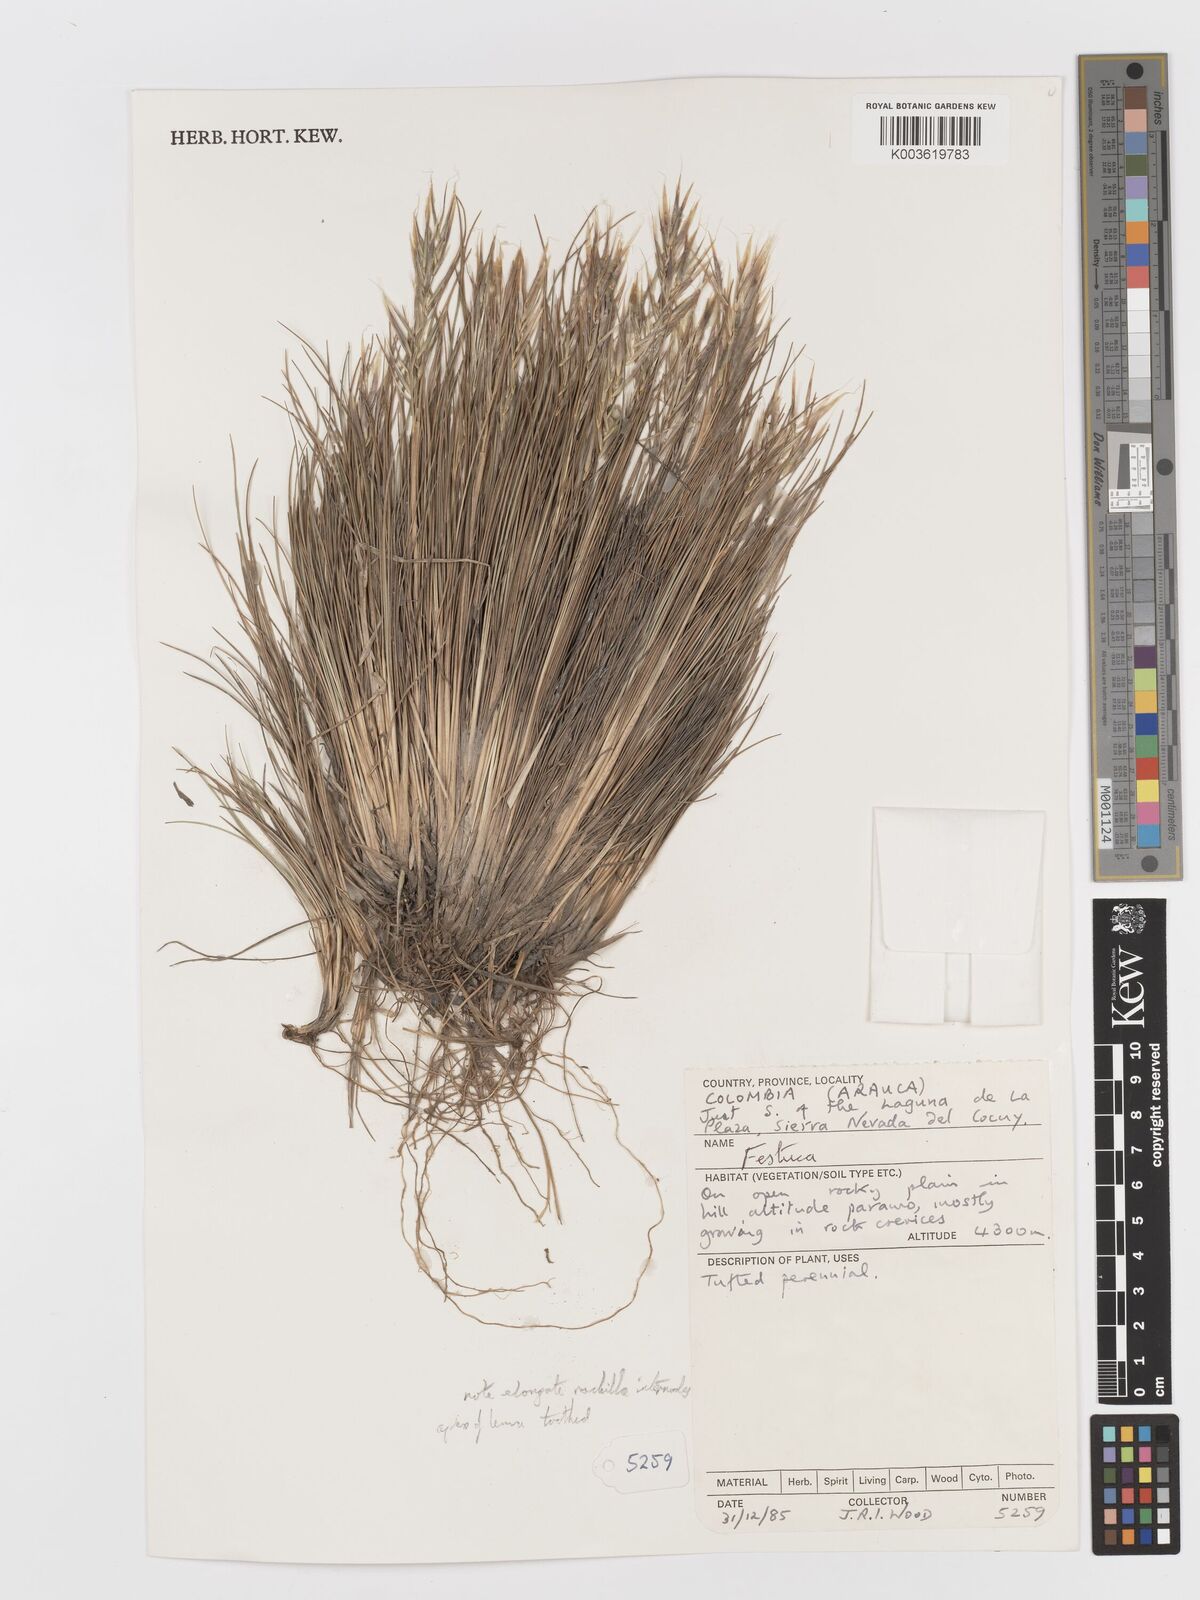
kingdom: Plantae
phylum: Tracheophyta
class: Liliopsida
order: Poales
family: Poaceae
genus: Festuca
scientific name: Festuca floribunda
